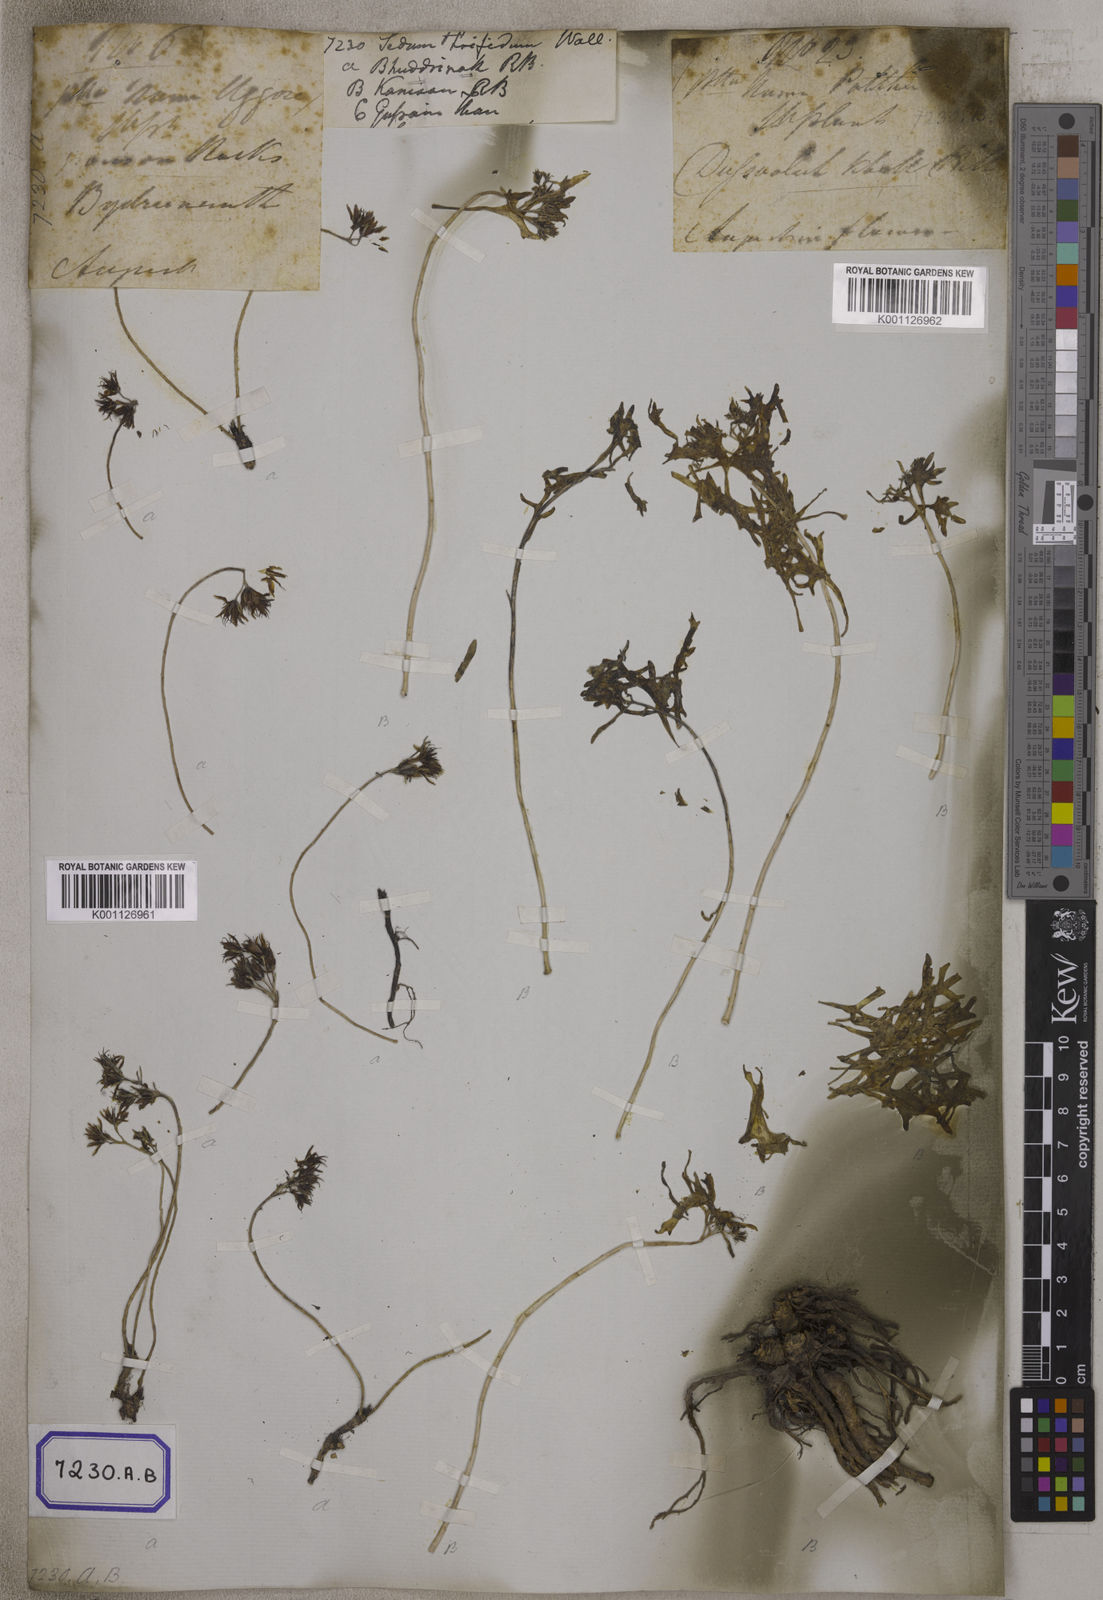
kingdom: Plantae
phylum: Tracheophyta
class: Magnoliopsida
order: Saxifragales
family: Crassulaceae
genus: Sedum
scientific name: Sedum
